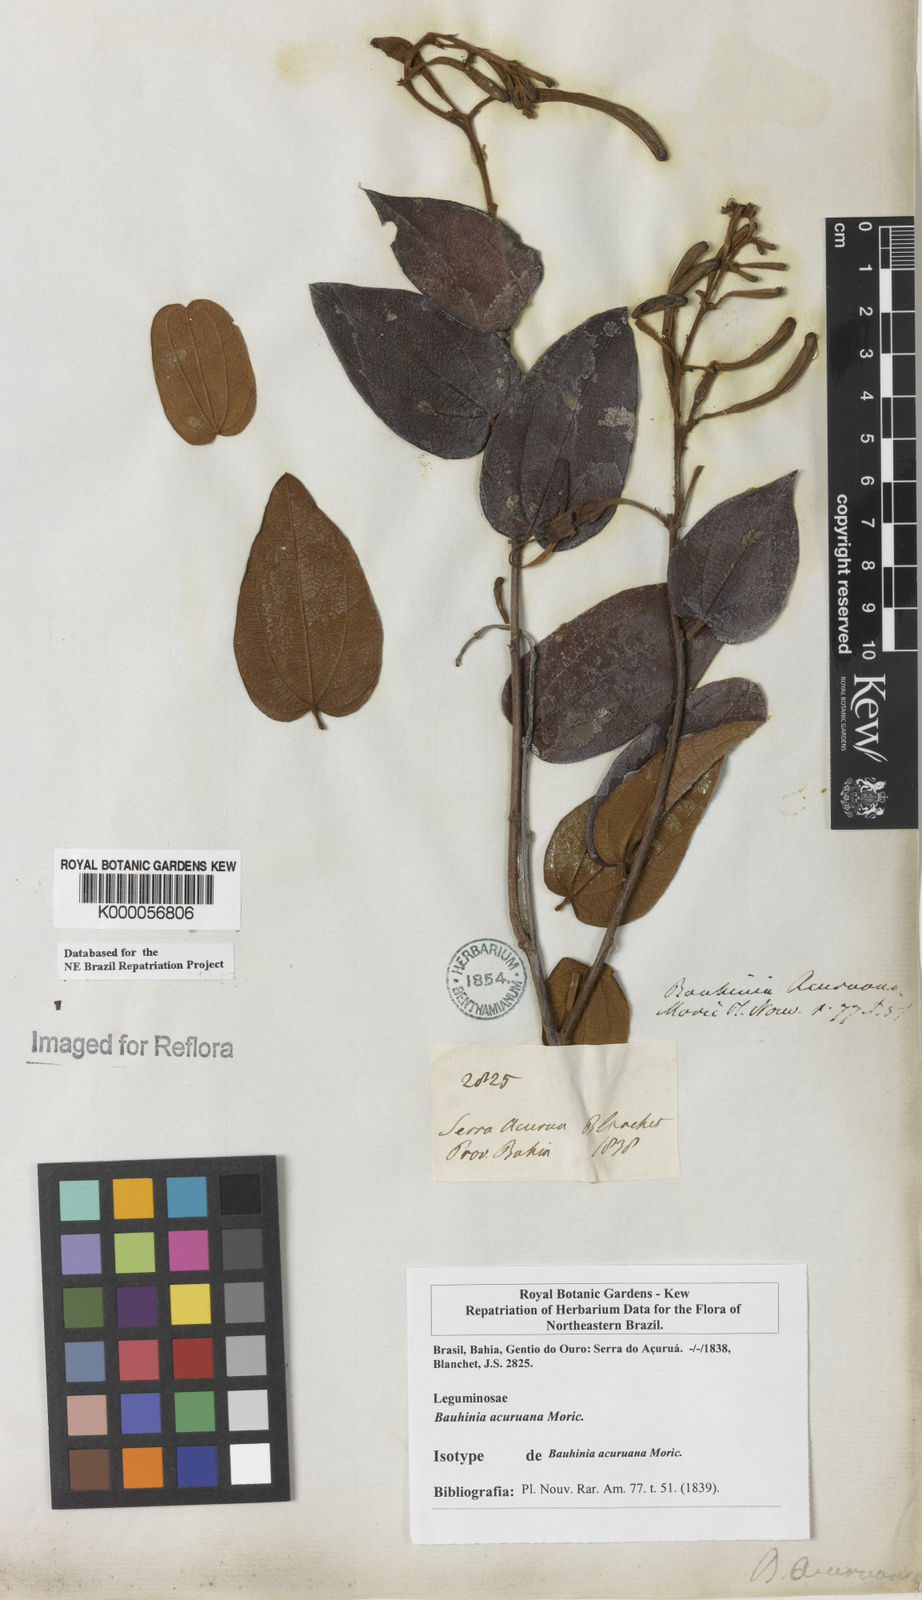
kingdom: Plantae
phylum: Tracheophyta
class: Magnoliopsida
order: Fabales
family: Fabaceae
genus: Bauhinia
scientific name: Bauhinia acuruana
